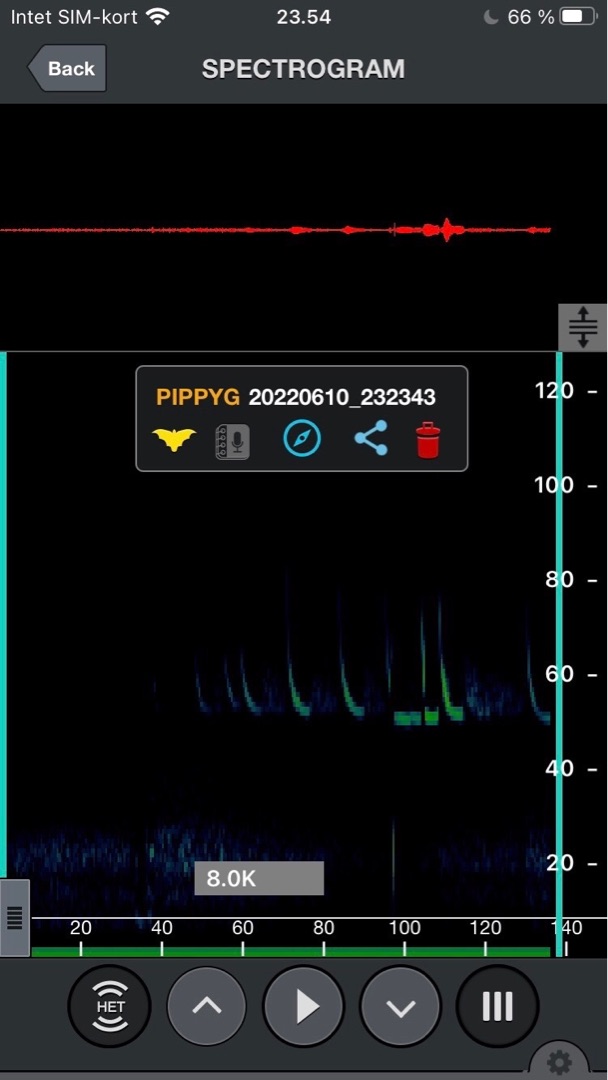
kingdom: Animalia
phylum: Chordata
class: Mammalia
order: Chiroptera
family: Vespertilionidae
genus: Pipistrellus
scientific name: Pipistrellus pygmaeus
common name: Dværgflagermus
